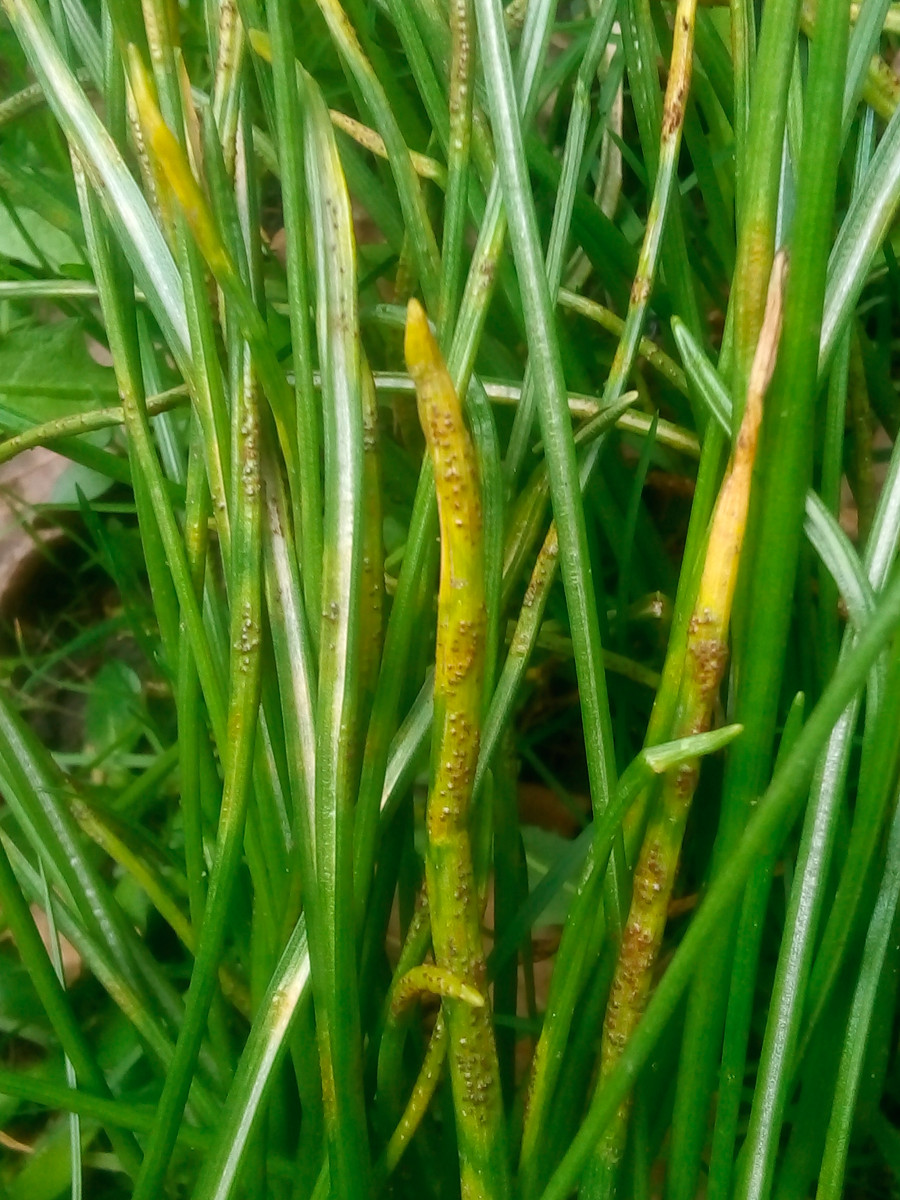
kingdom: Fungi
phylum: Basidiomycota
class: Pucciniomycetes
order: Pucciniales
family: Pucciniaceae
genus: Puccinia
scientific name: Puccinia liliacearum
